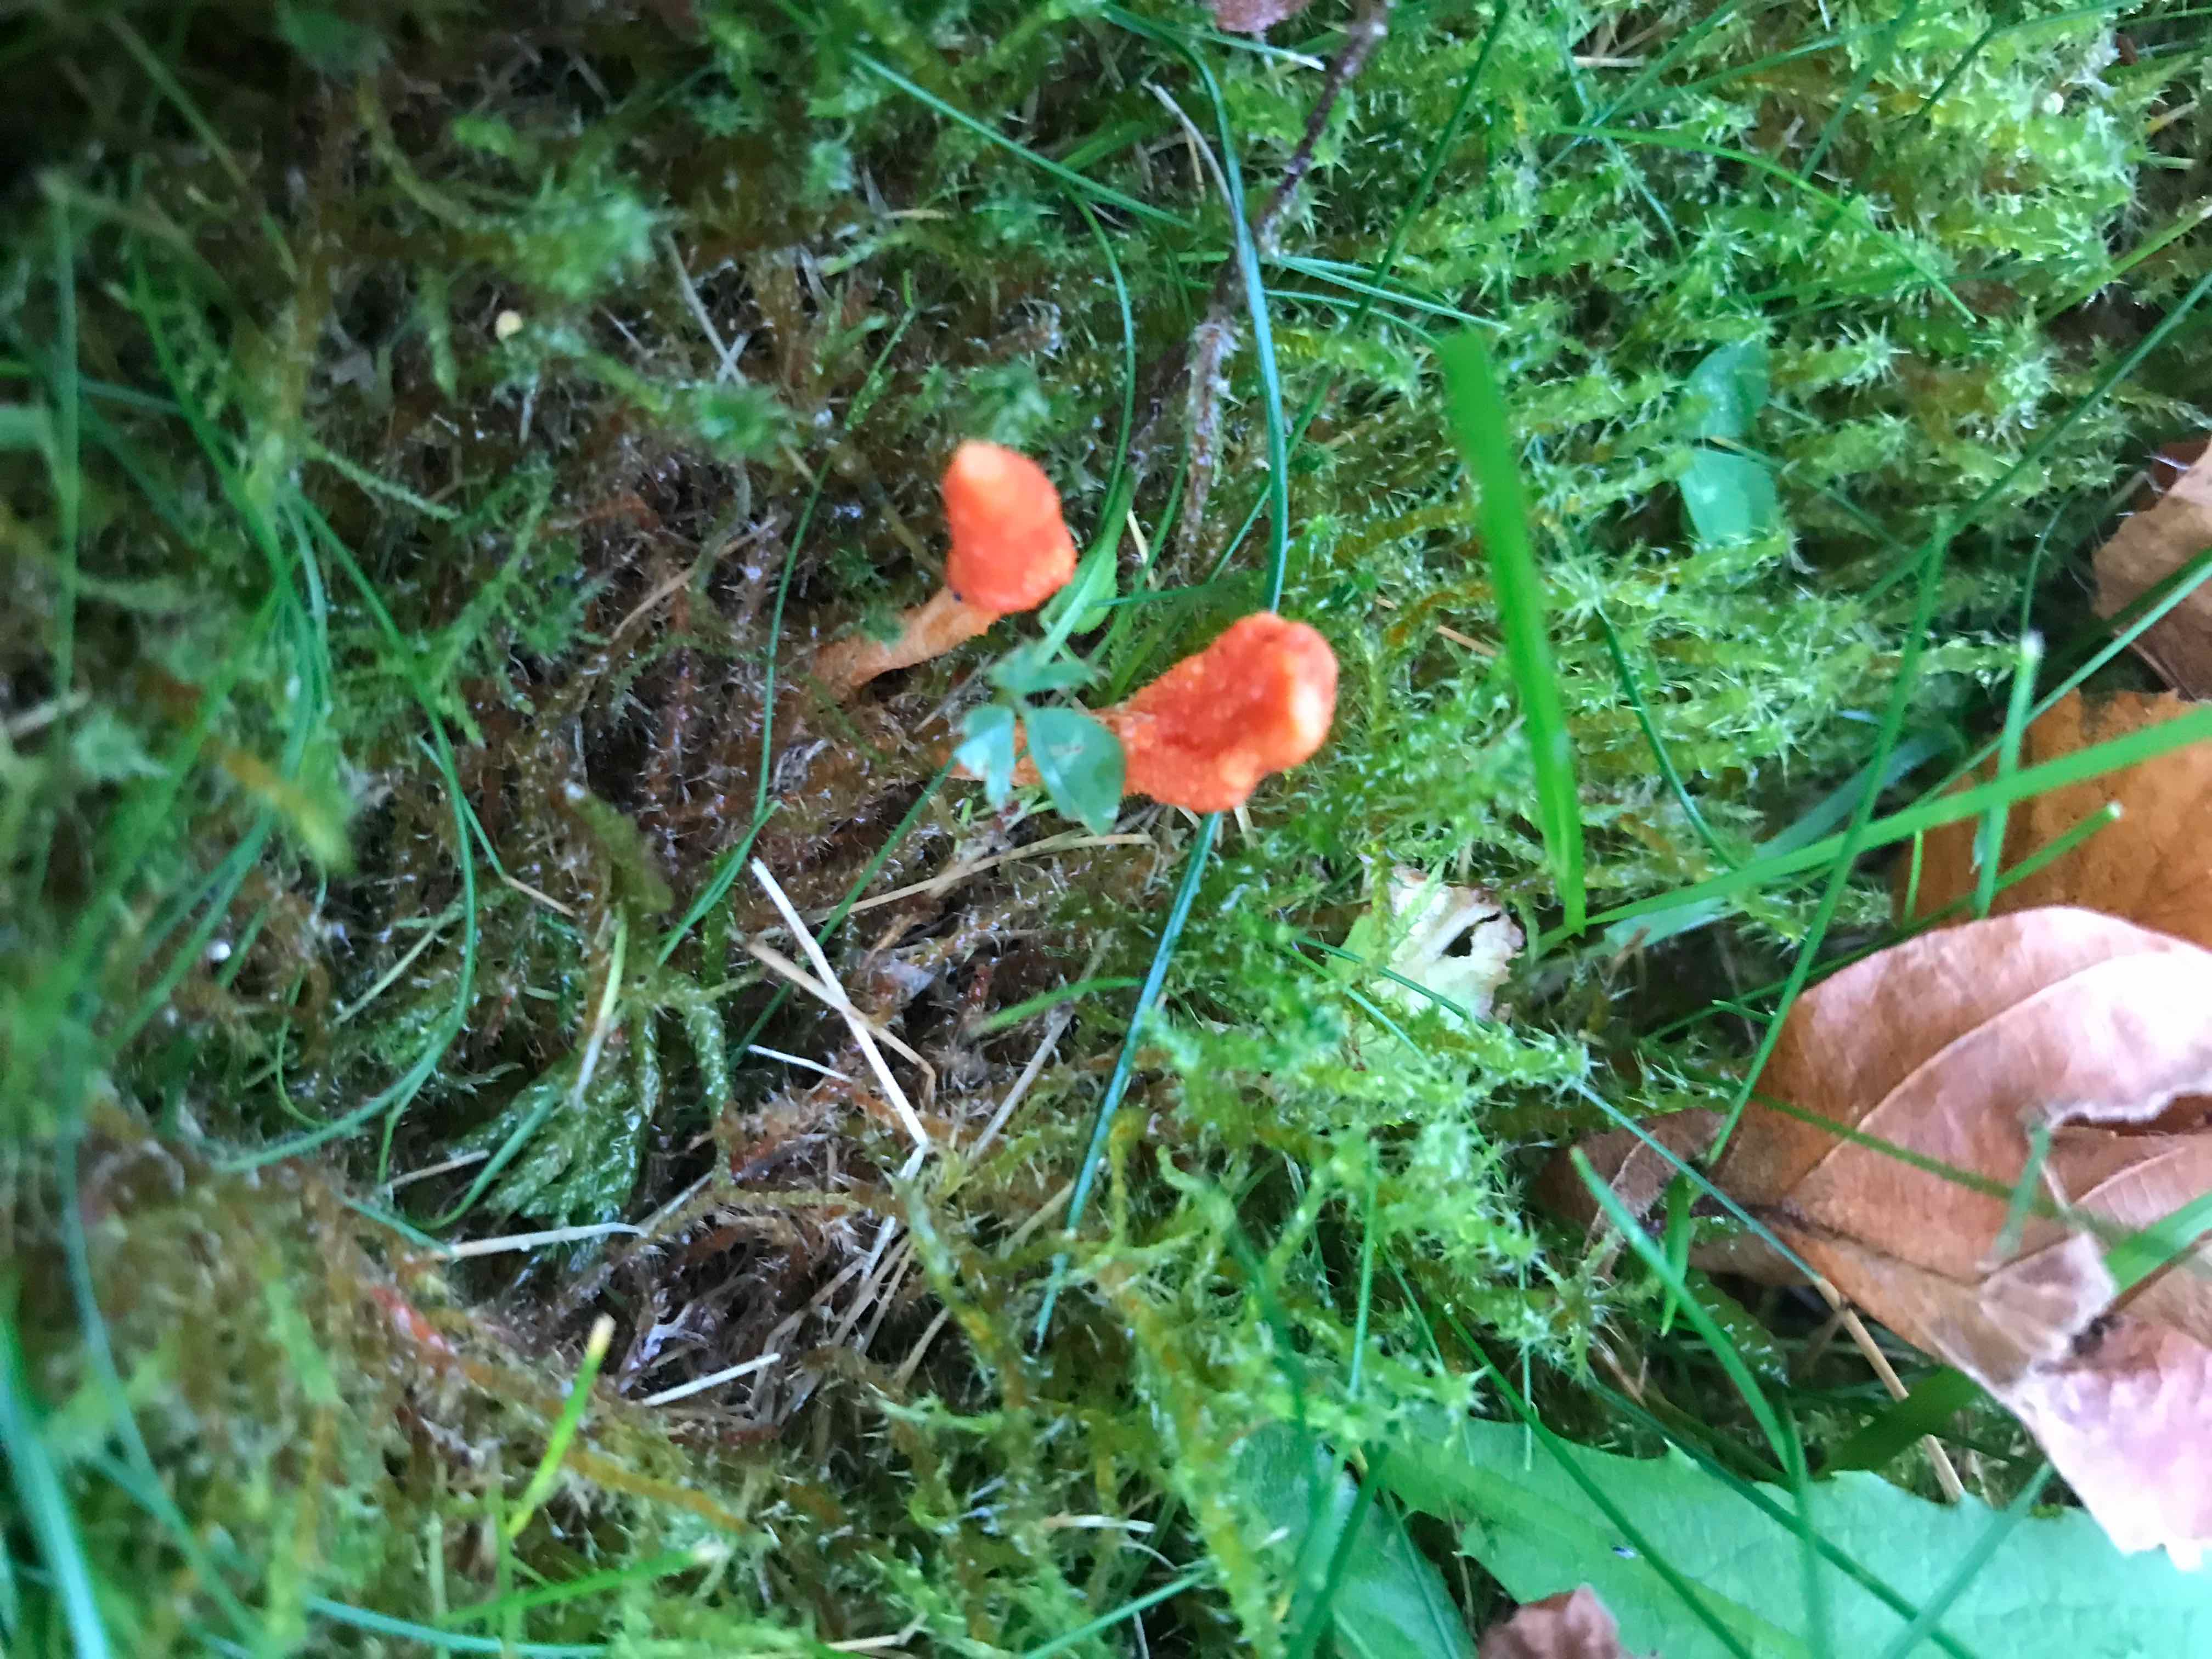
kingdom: Fungi
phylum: Ascomycota
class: Sordariomycetes
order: Hypocreales
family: Cordycipitaceae
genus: Cordyceps
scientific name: Cordyceps militaris
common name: puppe-snyltekølle
